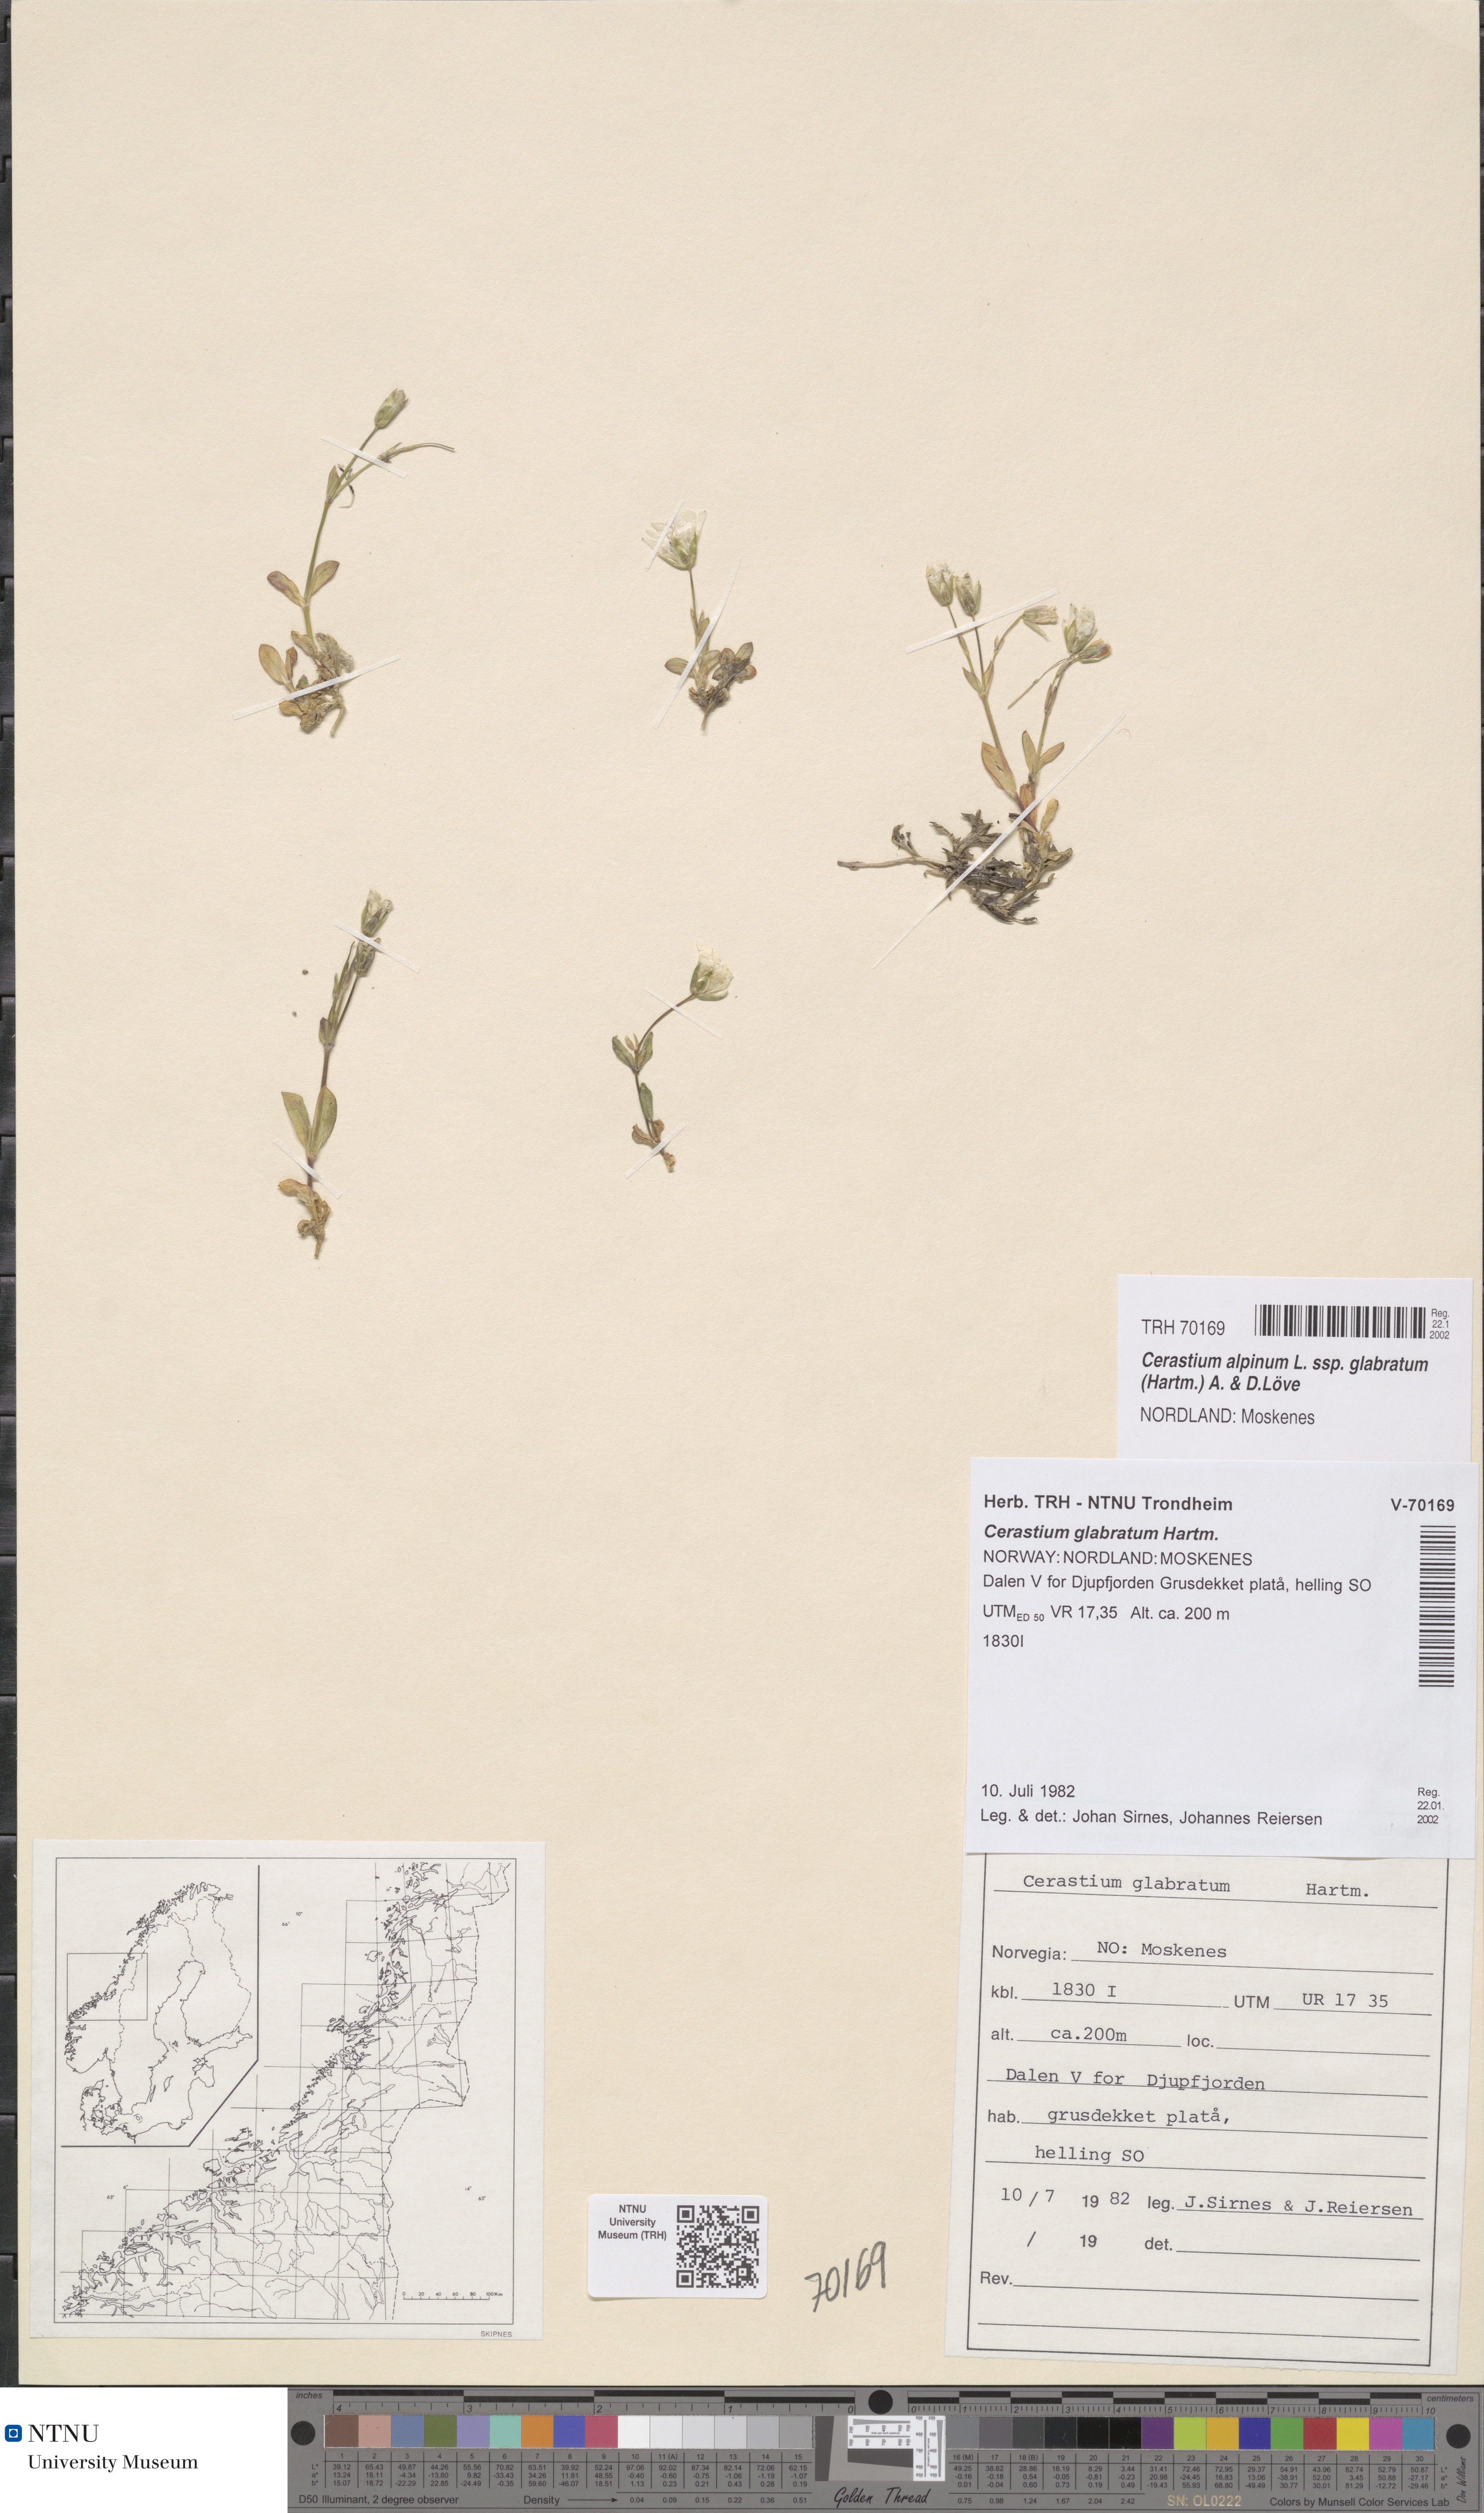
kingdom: Plantae
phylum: Tracheophyta
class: Magnoliopsida
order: Caryophyllales
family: Caryophyllaceae
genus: Cerastium
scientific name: Cerastium alpinum
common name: Alpine mouse-ear
